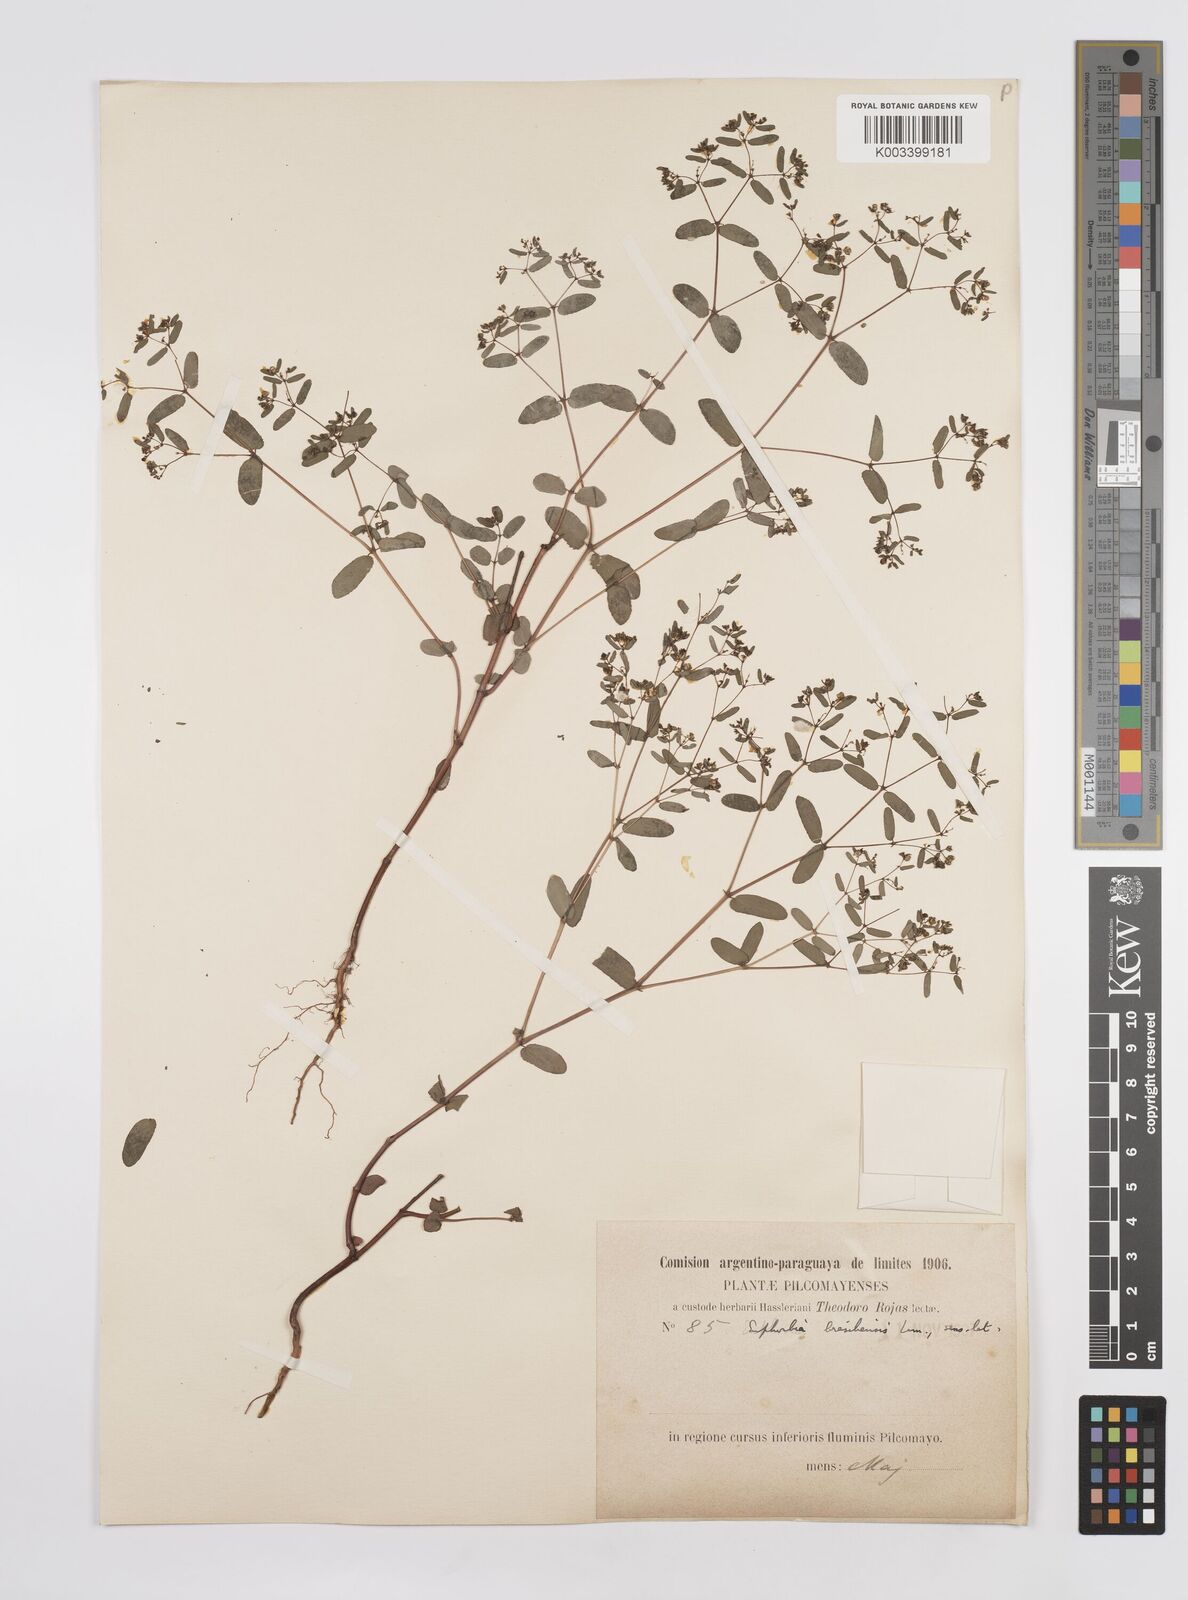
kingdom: Plantae
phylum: Tracheophyta
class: Magnoliopsida
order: Malpighiales
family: Euphorbiaceae
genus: Euphorbia
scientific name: Euphorbia hyssopifolia
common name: Hyssopleaf sandmat
